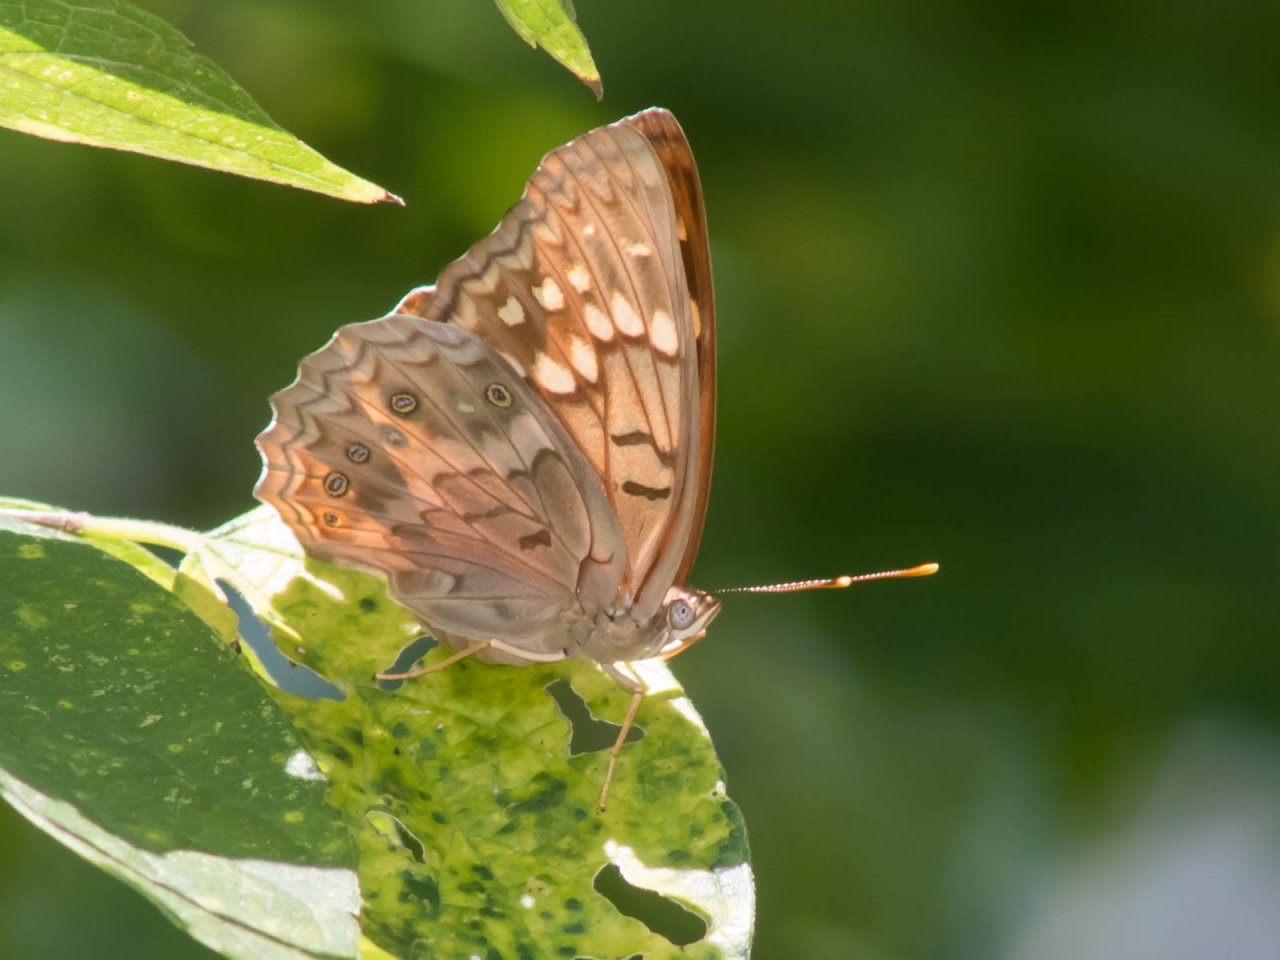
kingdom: Animalia
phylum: Arthropoda
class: Insecta
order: Lepidoptera
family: Nymphalidae
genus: Asterocampa
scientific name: Asterocampa clyton
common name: Tawny Emperor
